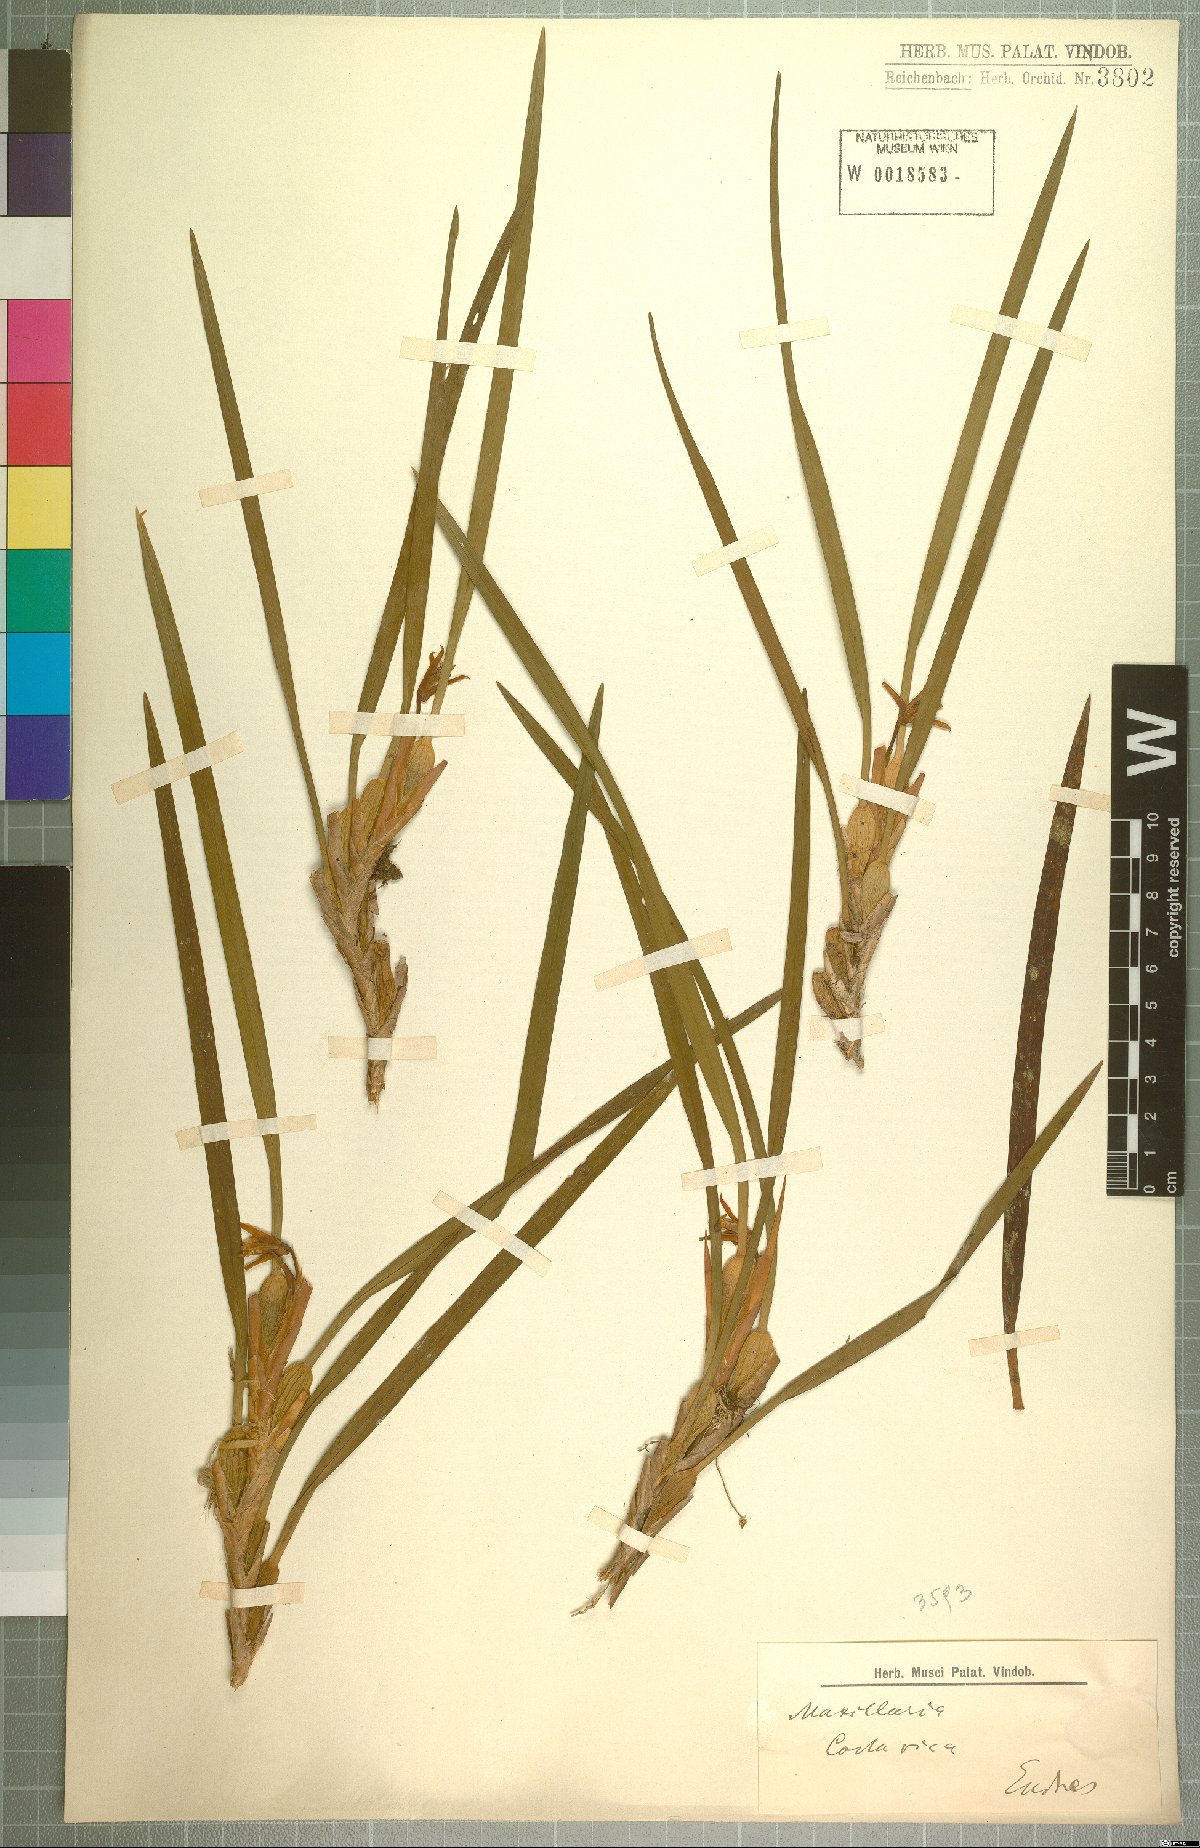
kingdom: Plantae
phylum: Tracheophyta
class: Liliopsida
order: Asparagales
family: Orchidaceae
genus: Maxillaria
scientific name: Maxillaria
